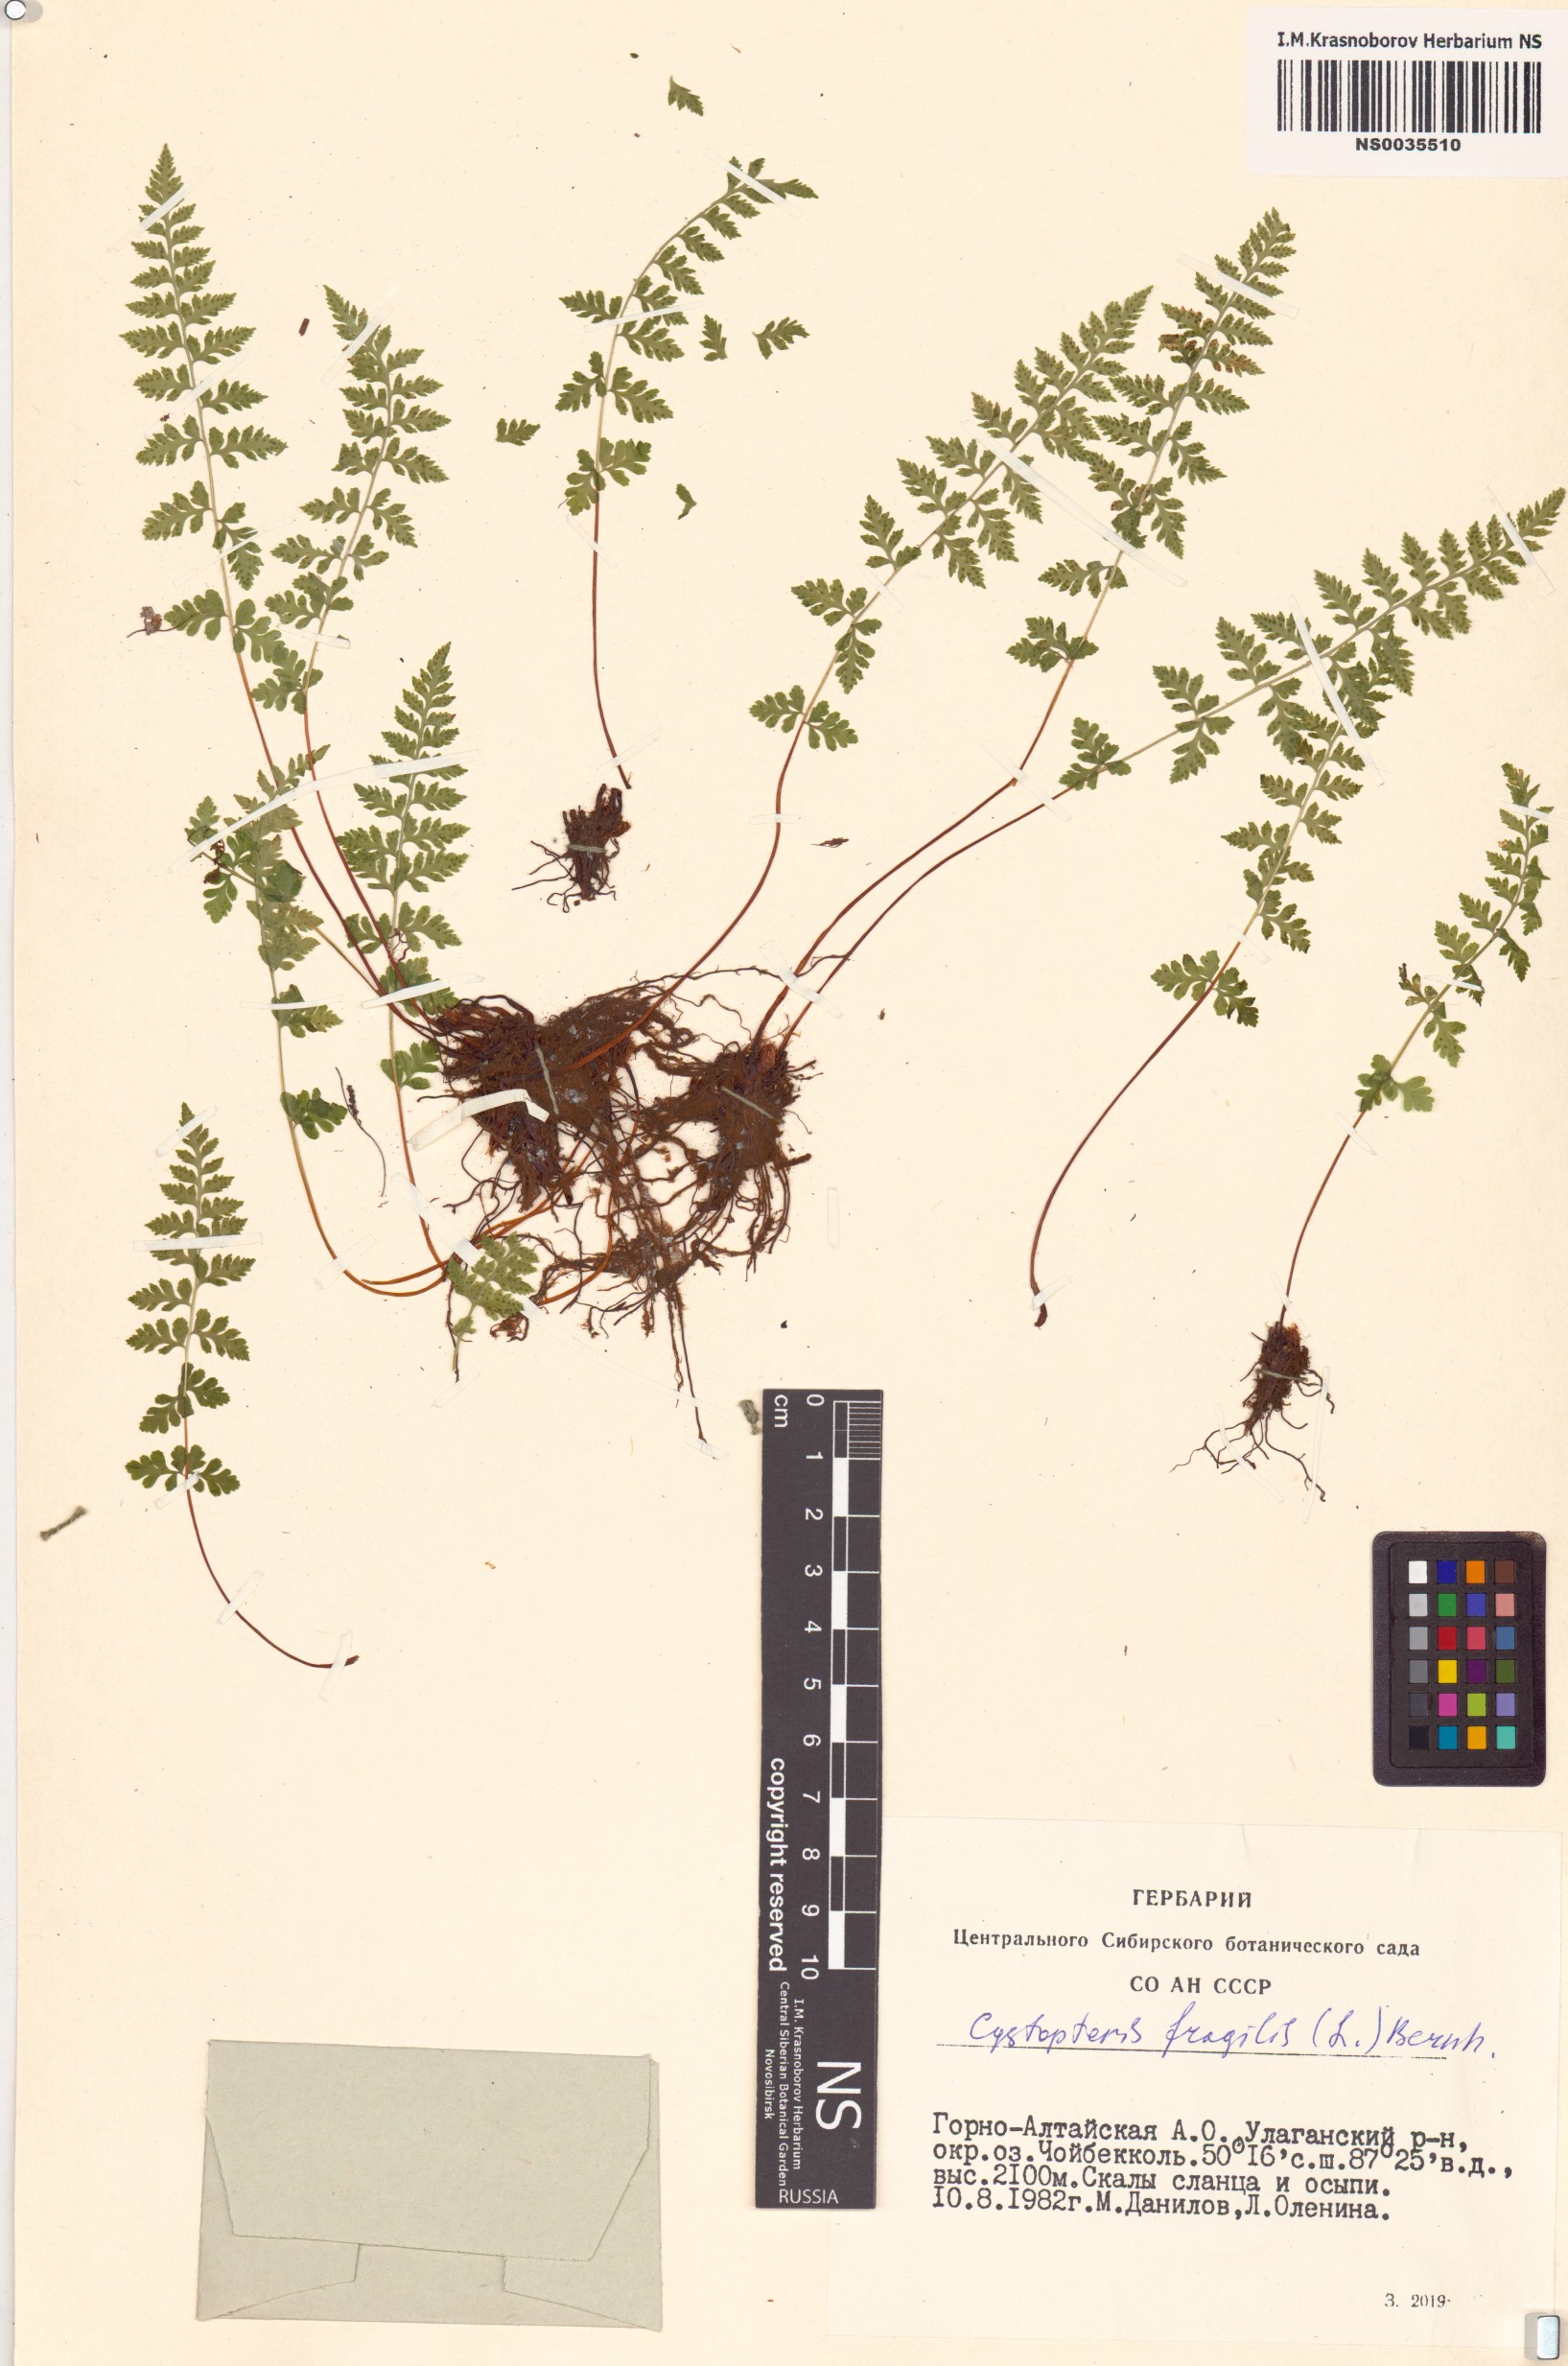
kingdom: Plantae
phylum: Tracheophyta
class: Polypodiopsida
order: Polypodiales
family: Cystopteridaceae
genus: Cystopteris
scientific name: Cystopteris fragilis
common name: Brittle bladder fern
